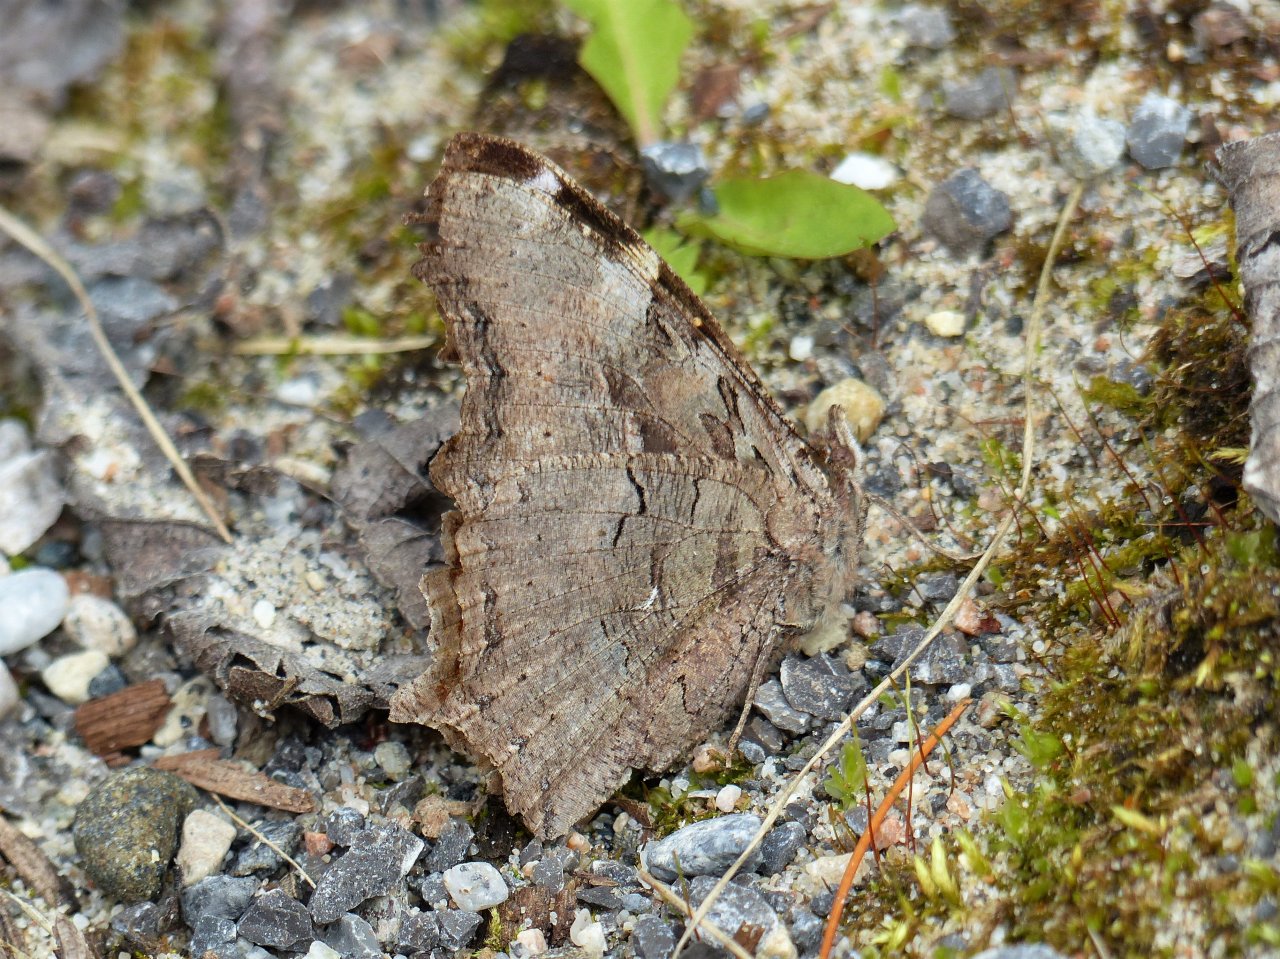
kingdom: Animalia
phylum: Arthropoda
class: Insecta
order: Lepidoptera
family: Nymphalidae
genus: Polygonia
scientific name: Polygonia vaualbum
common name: Compton Tortoiseshell
